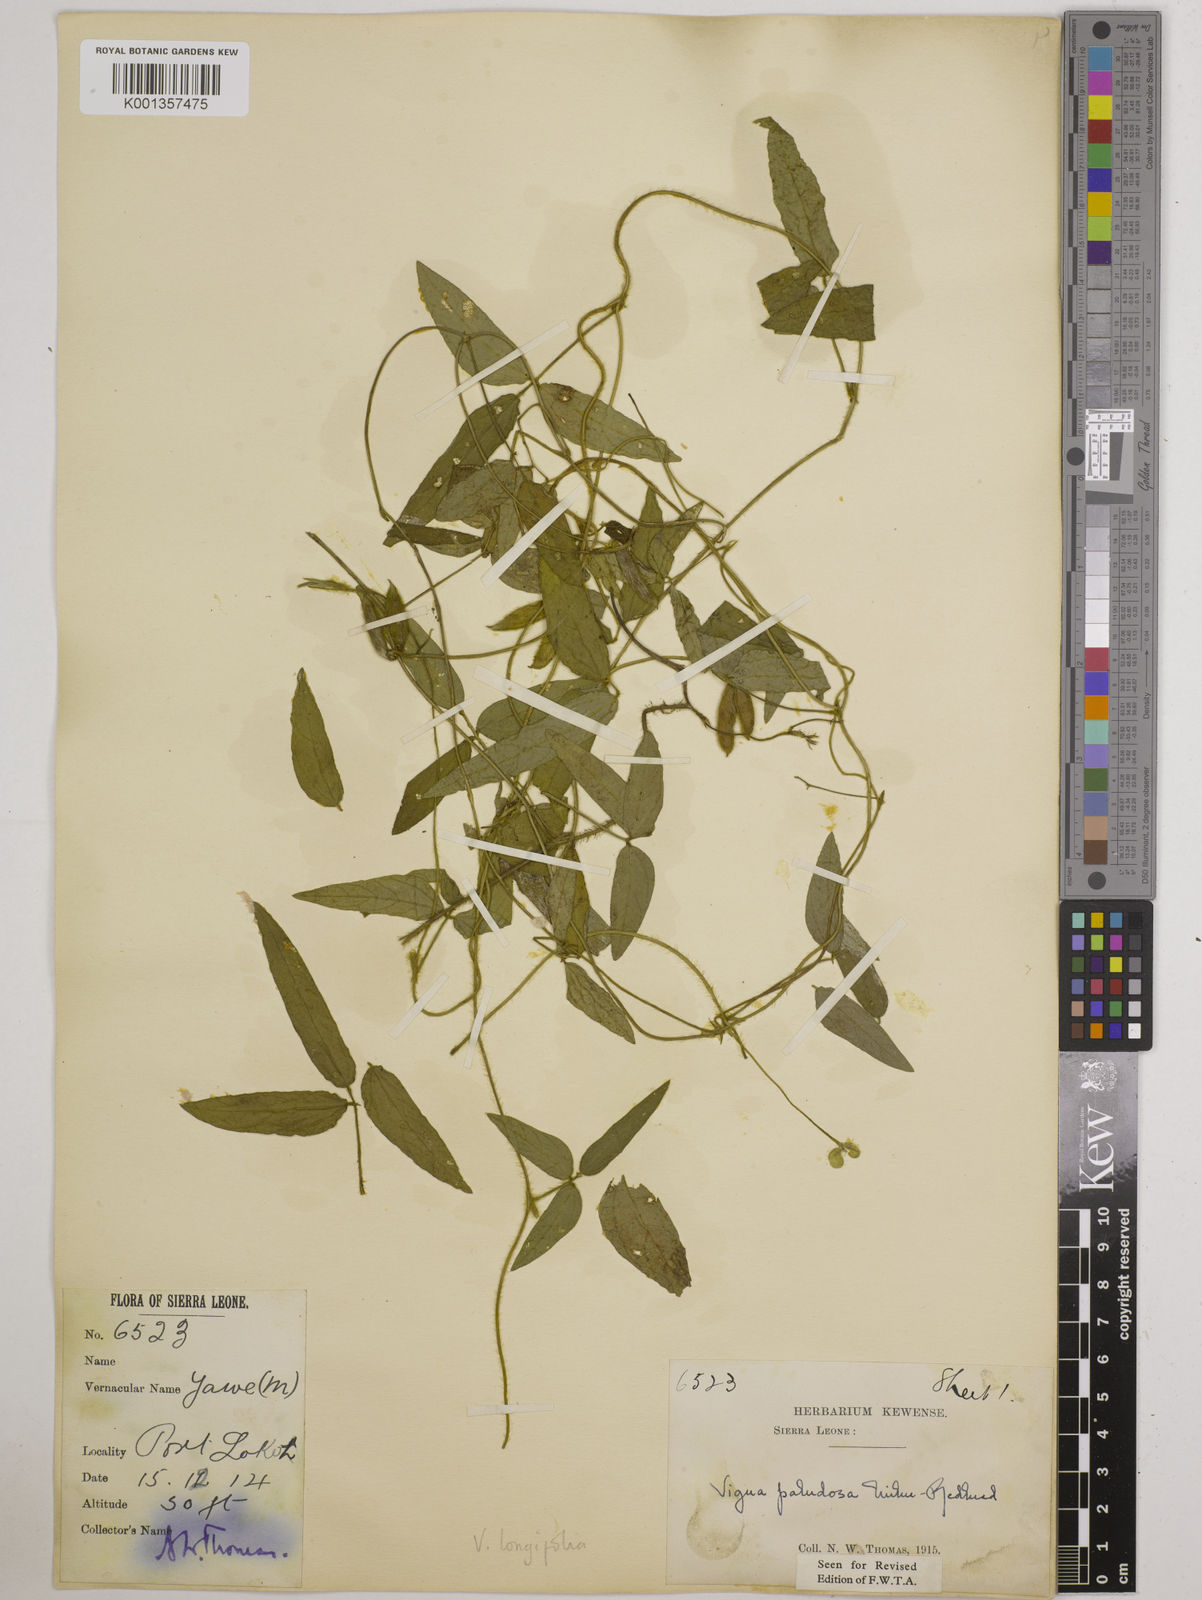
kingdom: Plantae
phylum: Tracheophyta
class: Magnoliopsida
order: Fabales
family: Fabaceae
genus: Vigna
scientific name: Vigna longifolia
